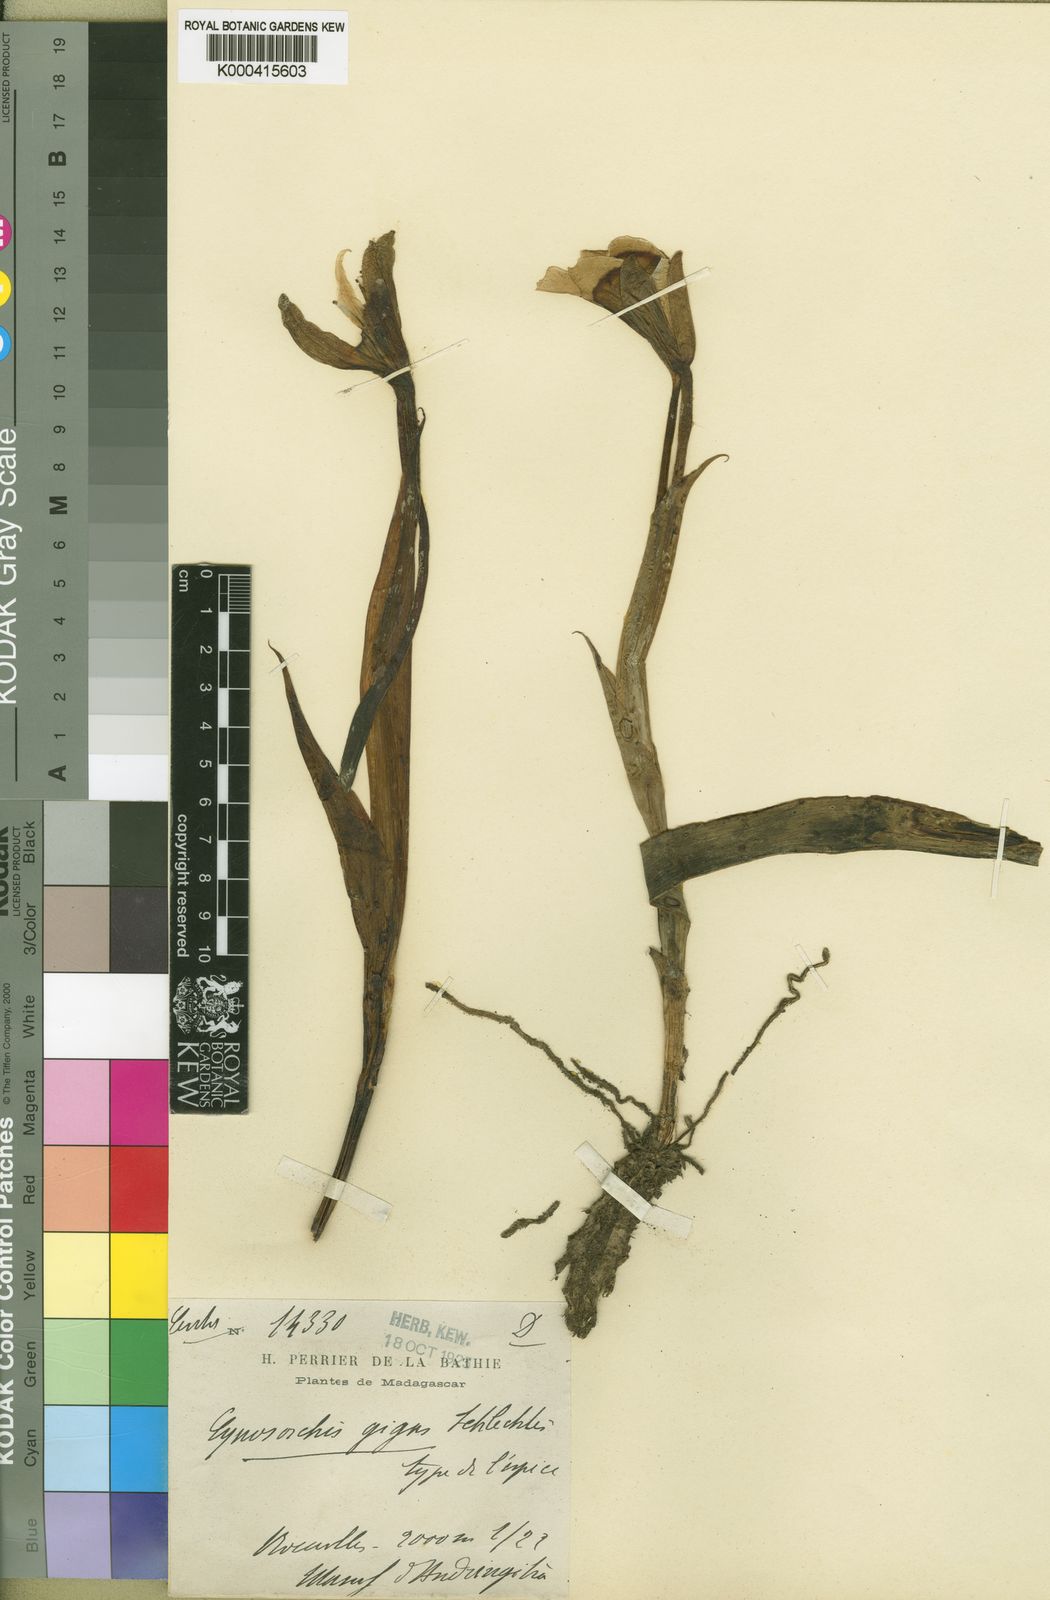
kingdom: Plantae
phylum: Tracheophyta
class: Liliopsida
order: Asparagales
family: Orchidaceae
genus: Cynorkis
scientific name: Cynorkis gigas
